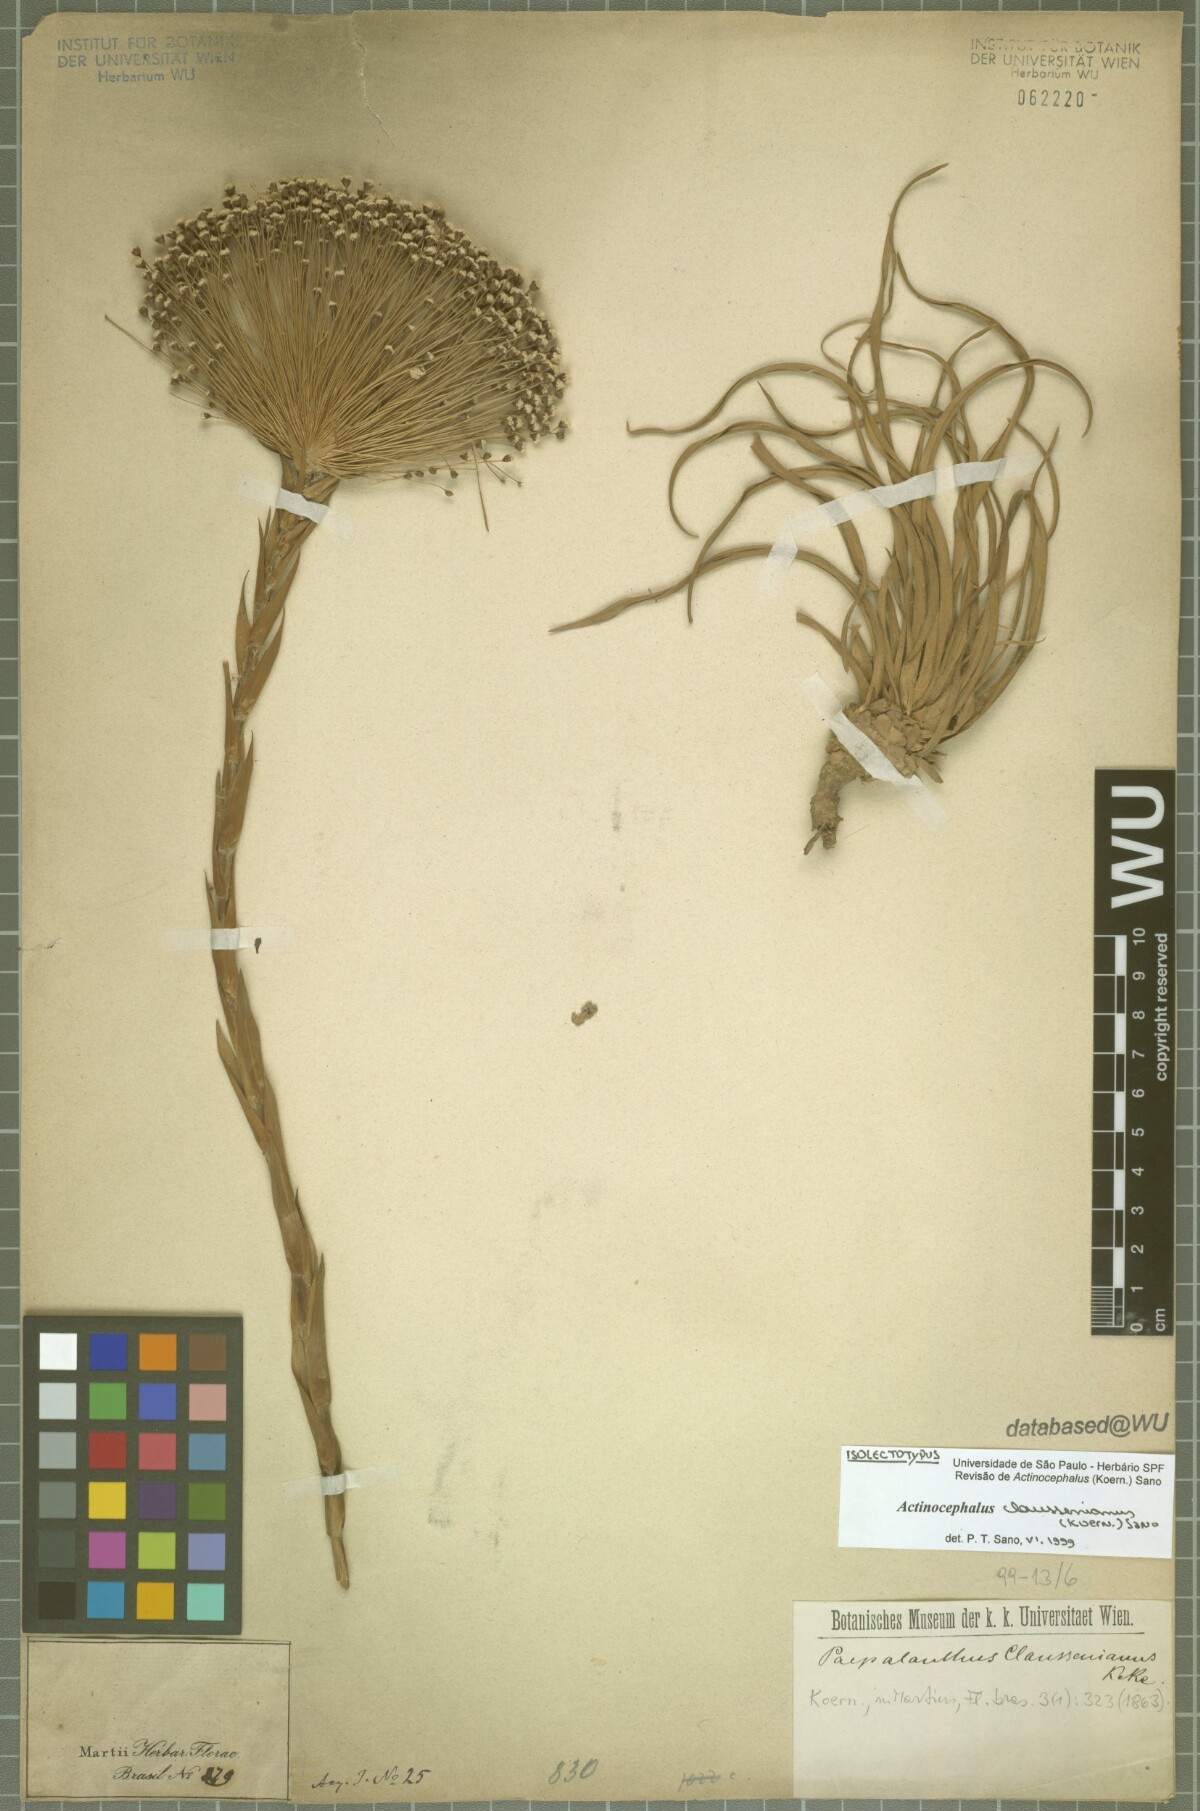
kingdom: Plantae
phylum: Tracheophyta
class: Liliopsida
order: Poales
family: Eriocaulaceae
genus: Paepalanthus
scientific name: Paepalanthus claussenianus
